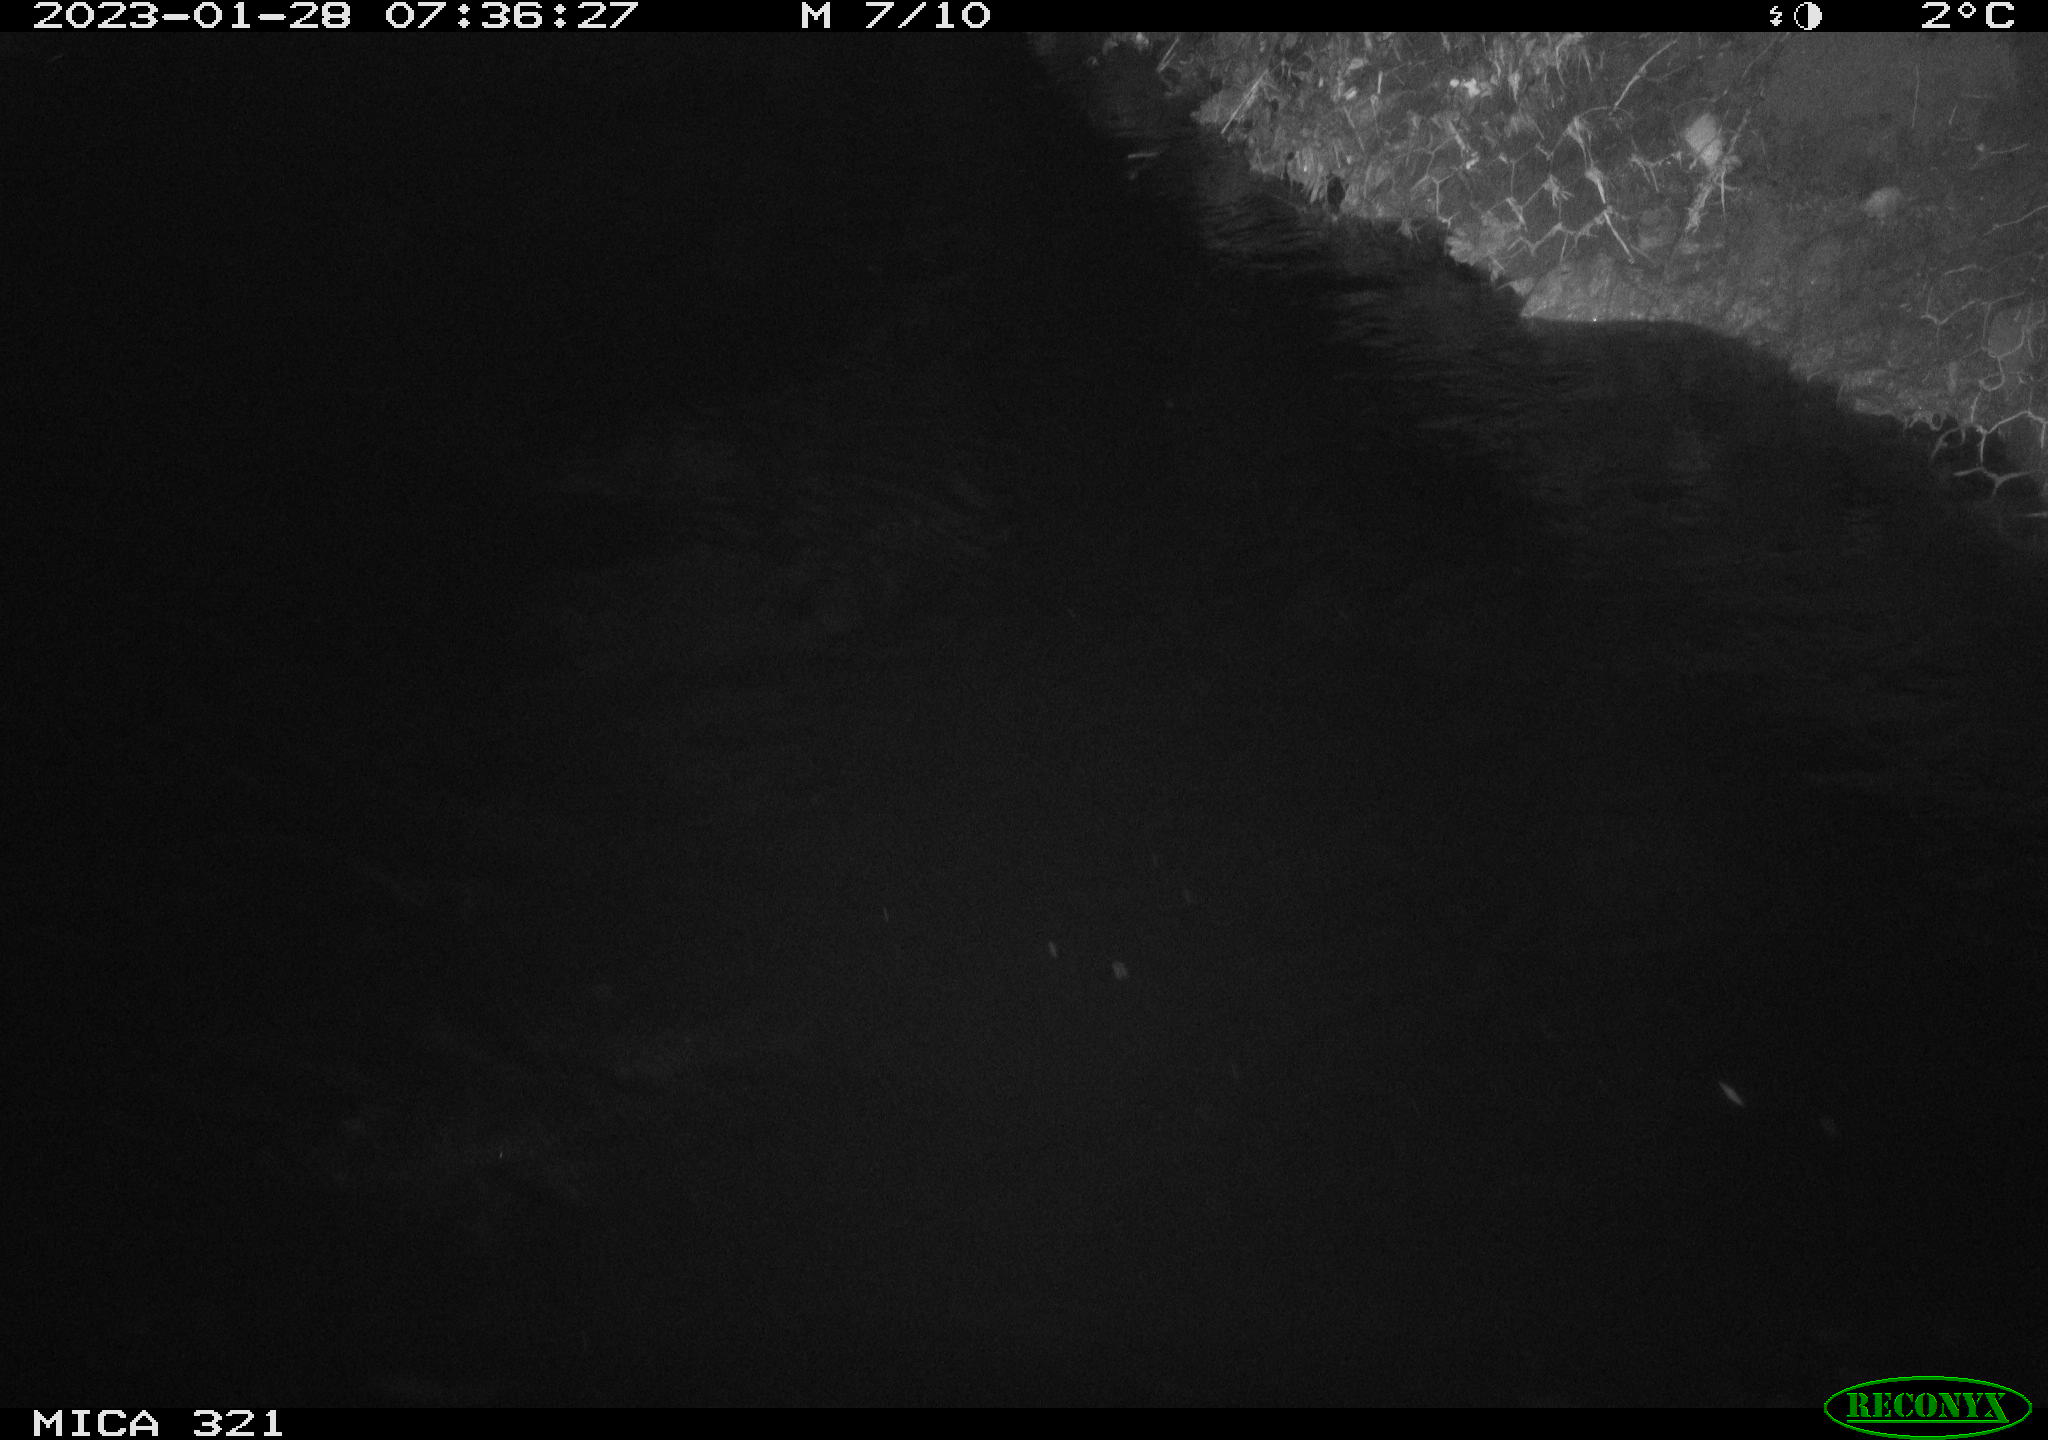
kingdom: Animalia
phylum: Chordata
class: Mammalia
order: Rodentia
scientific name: Rodentia
